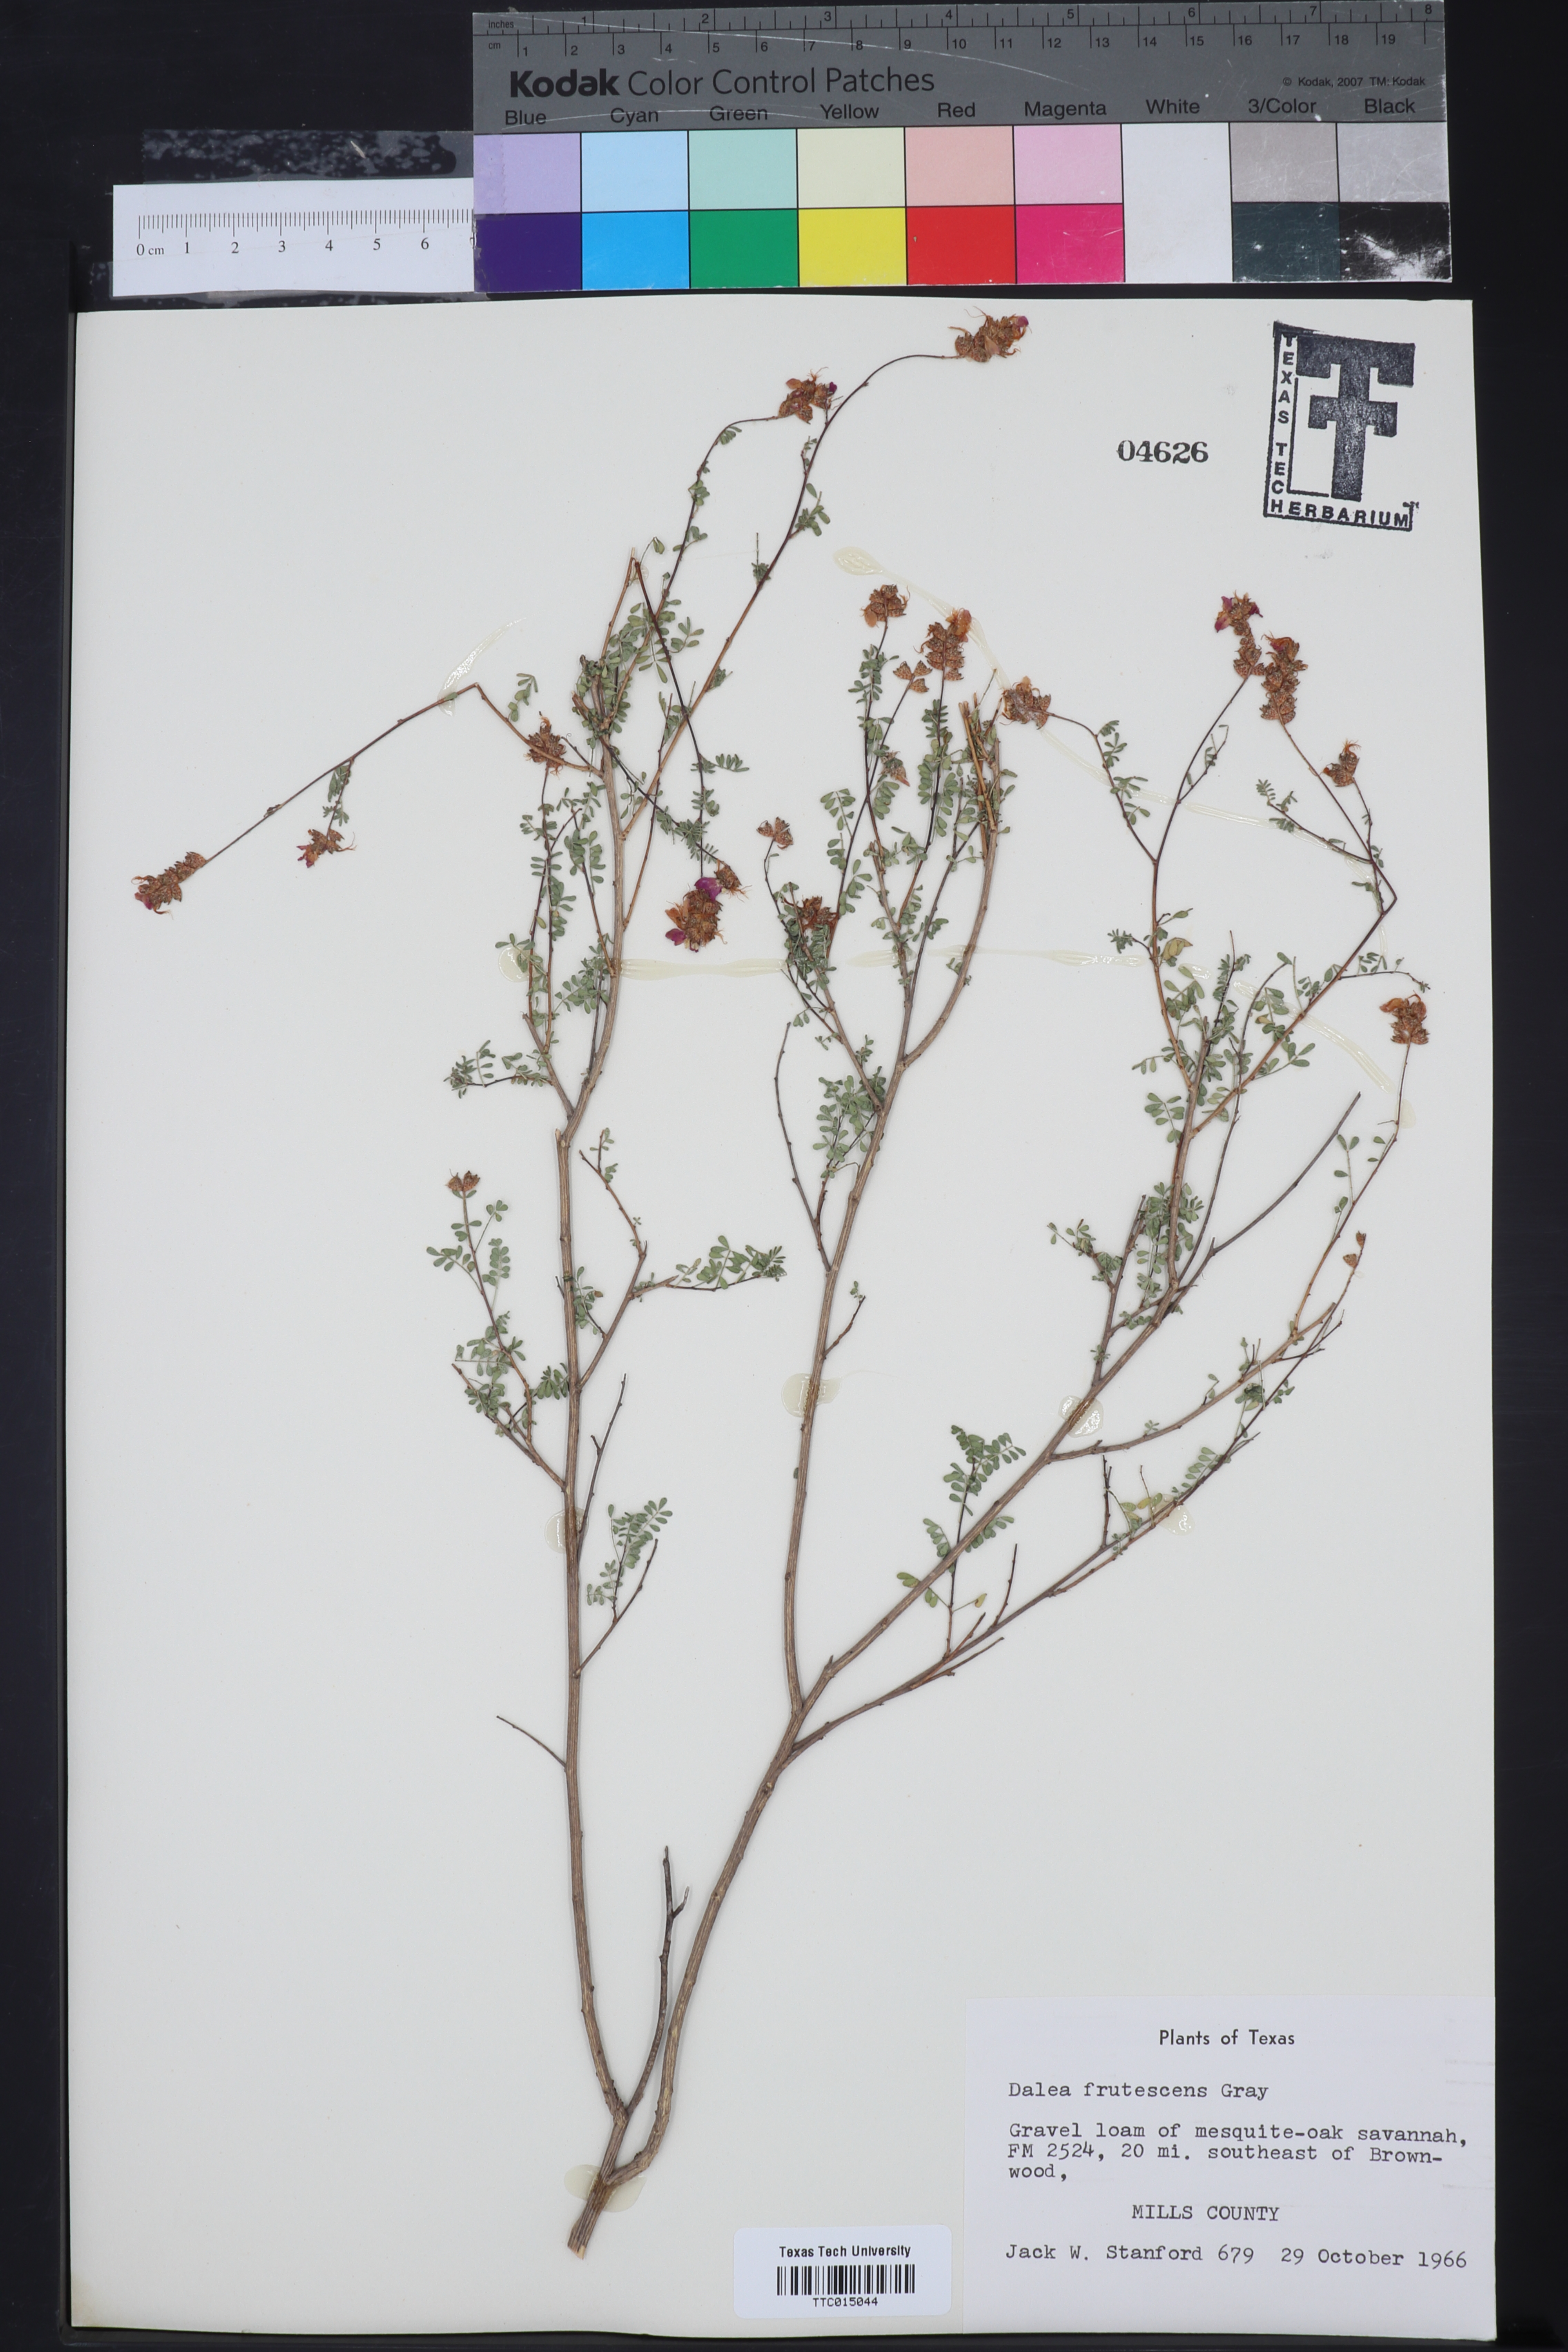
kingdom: Plantae
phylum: Tracheophyta
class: Magnoliopsida
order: Fabales
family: Fabaceae
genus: Dalea
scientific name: Dalea frutescens
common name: Black dalea
